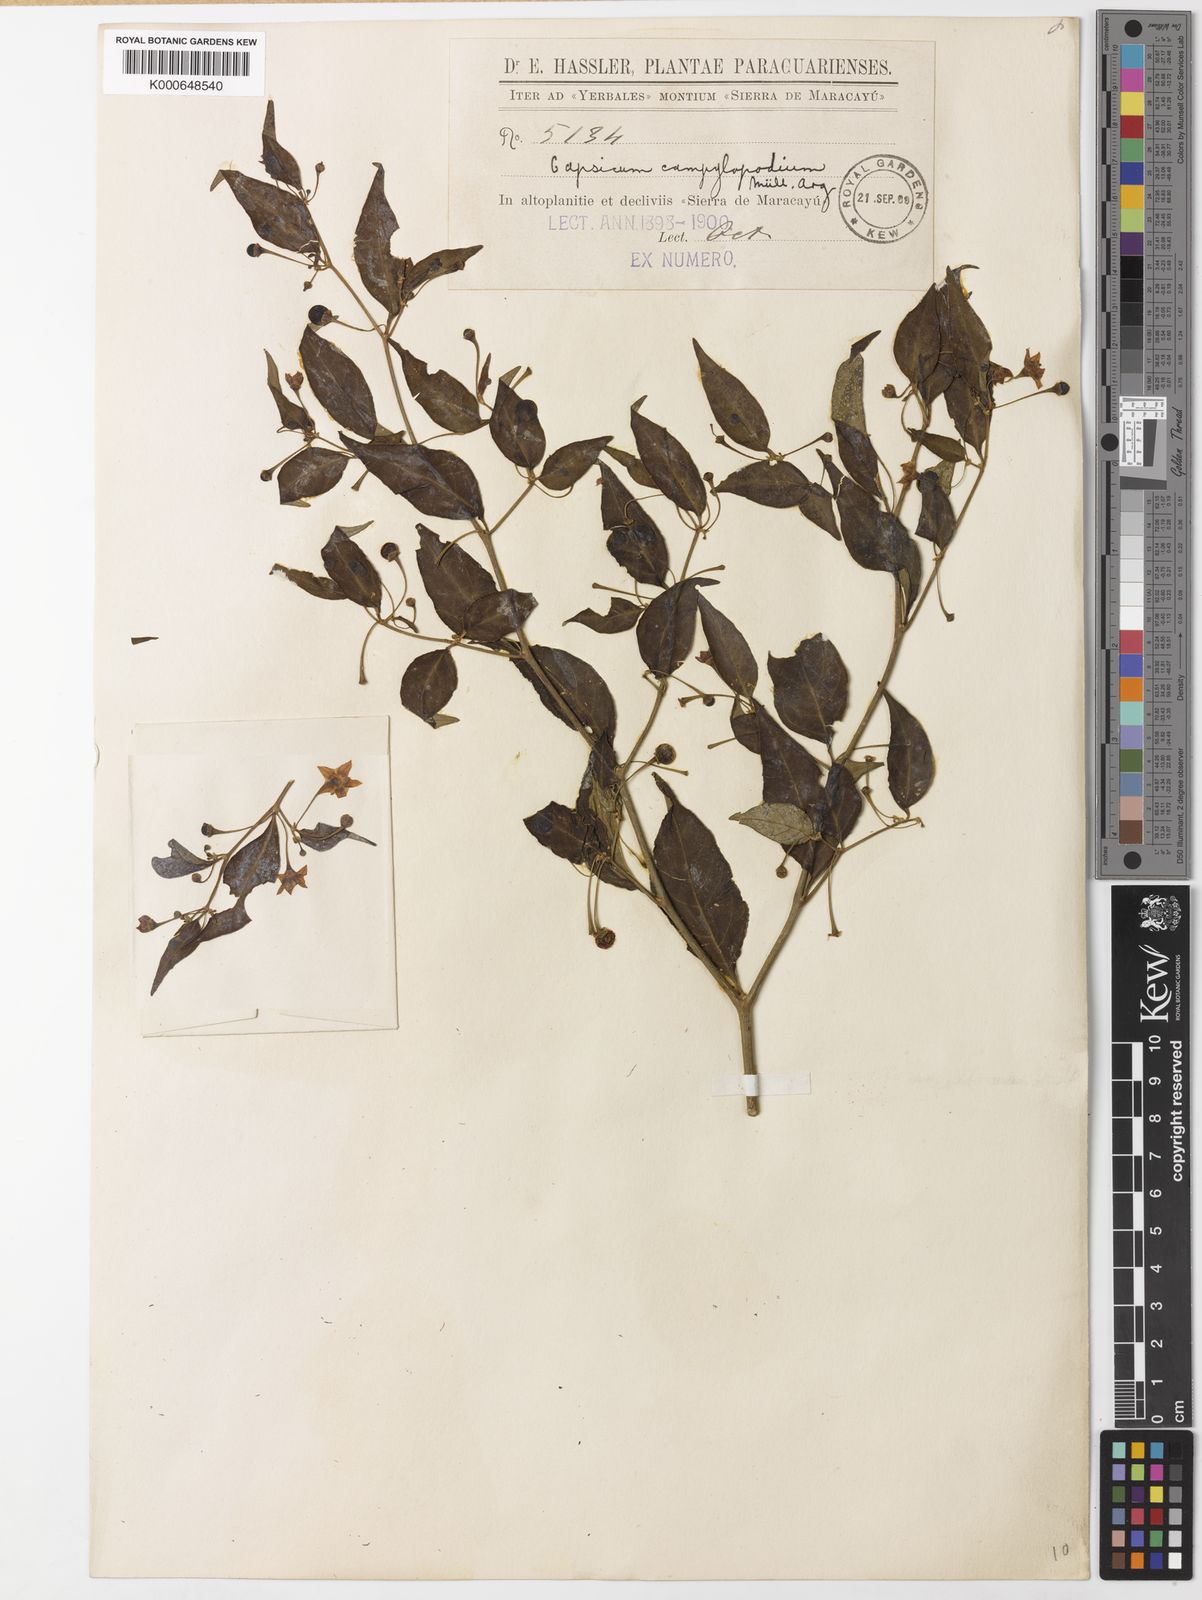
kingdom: Plantae
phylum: Tracheophyta
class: Magnoliopsida
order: Solanales
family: Solanaceae
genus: Capsicum
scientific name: Capsicum flexuosum
